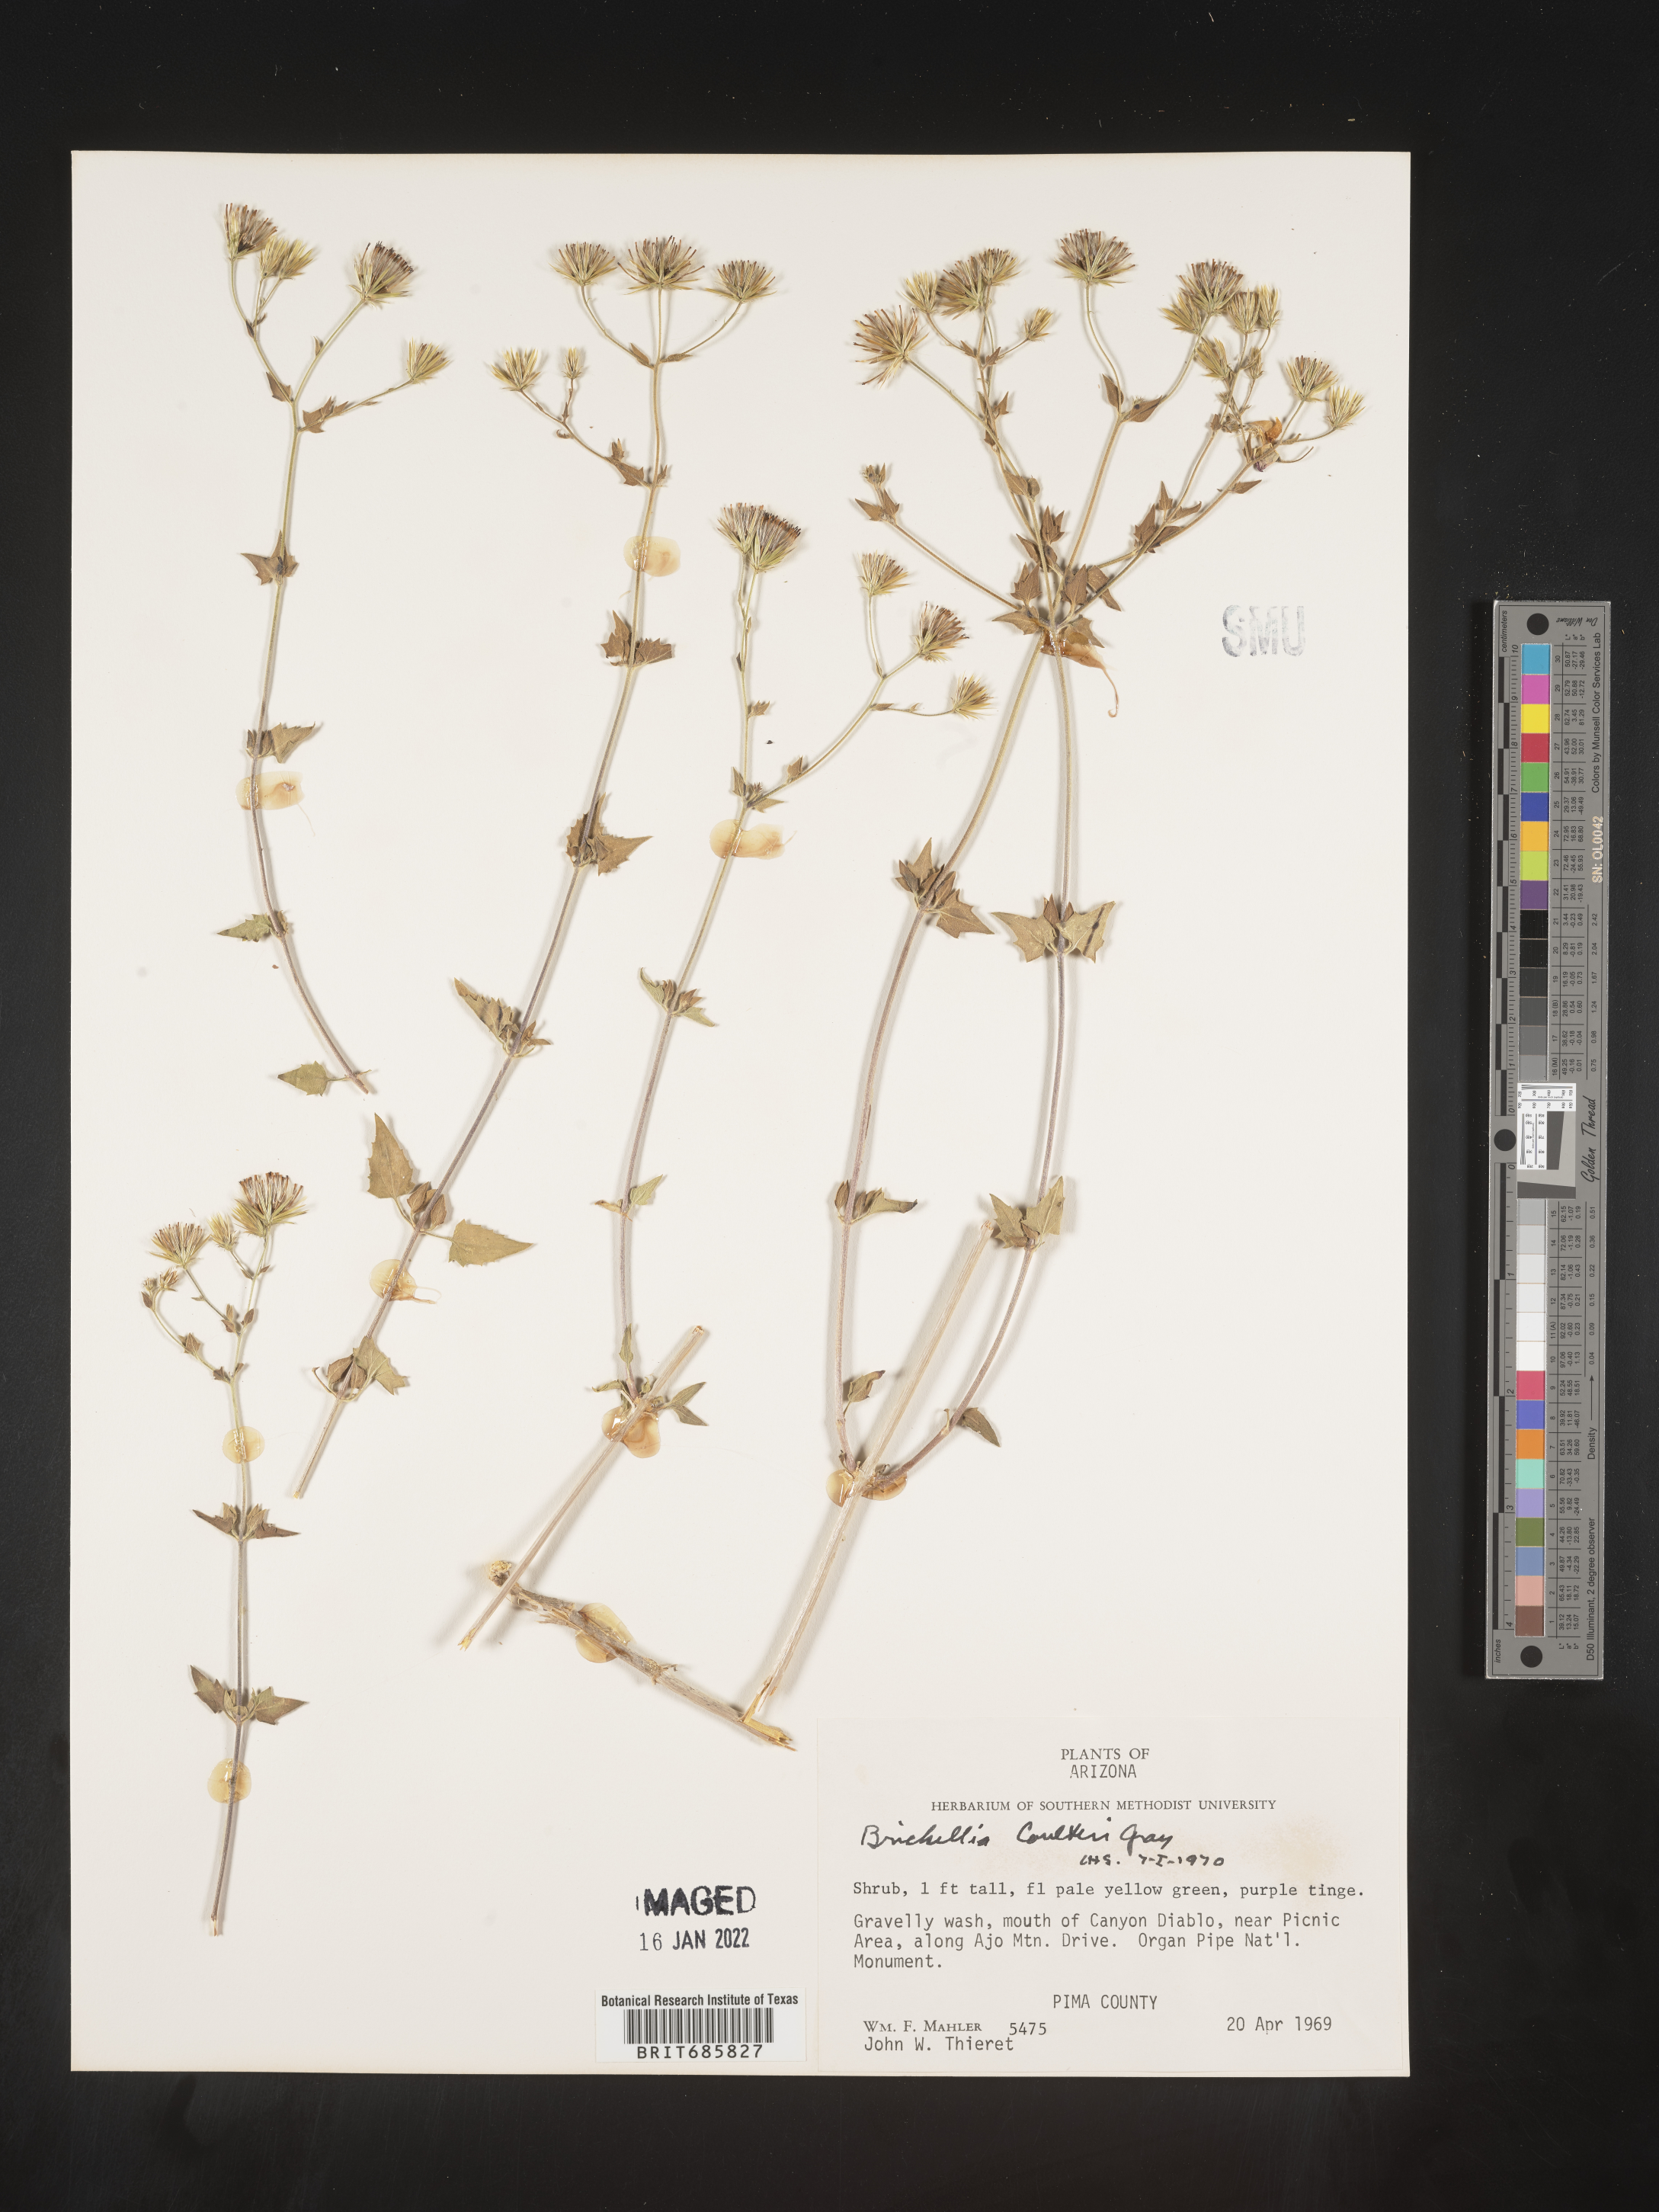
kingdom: Plantae
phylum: Tracheophyta
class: Magnoliopsida
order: Asterales
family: Asteraceae
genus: Brickellia
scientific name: Brickellia coulteri
